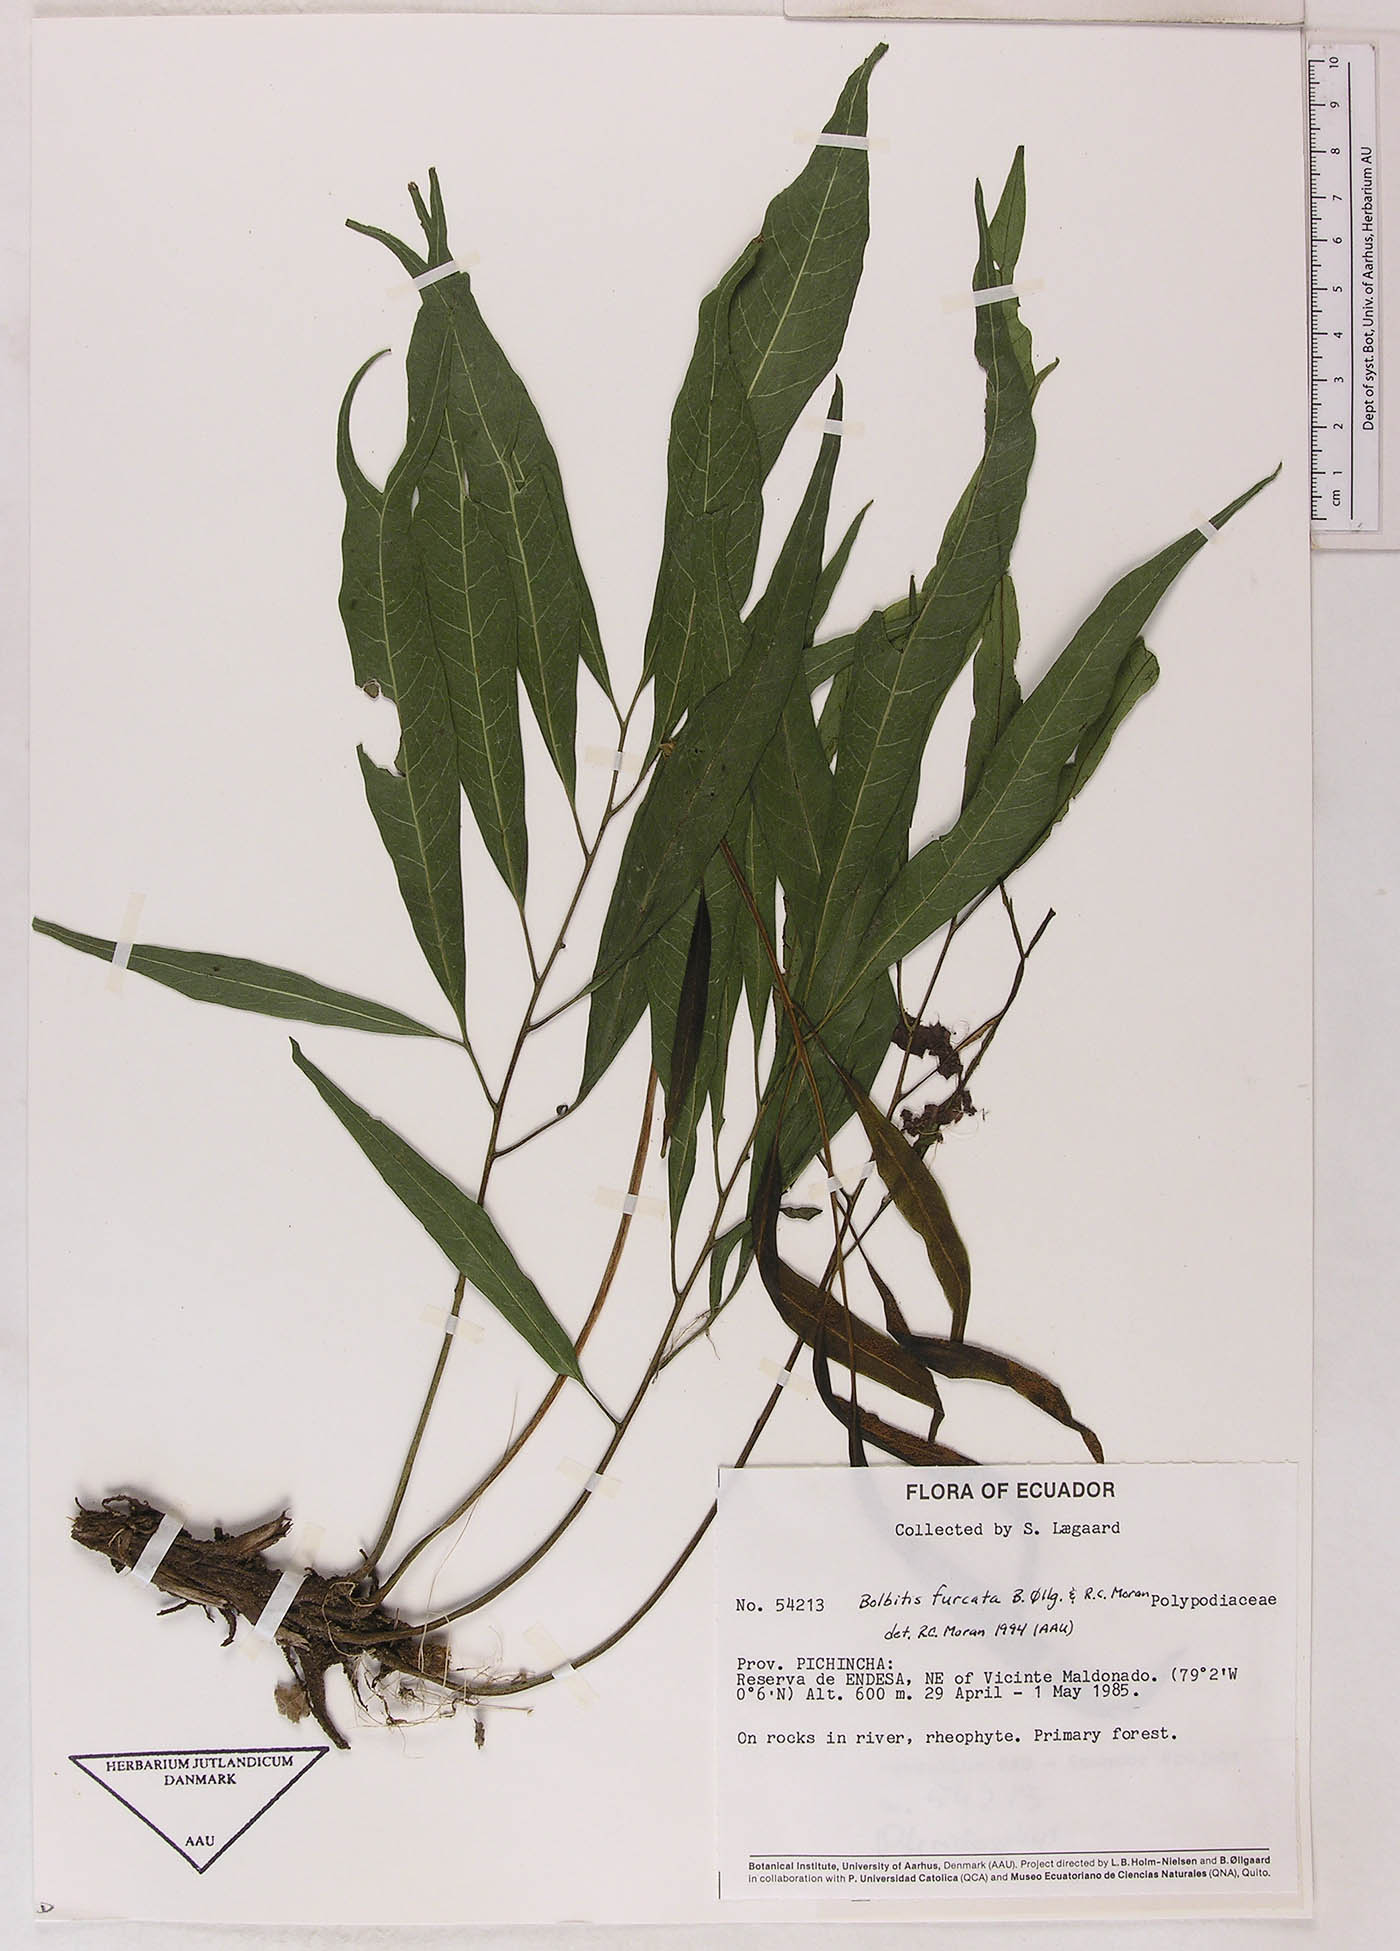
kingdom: Plantae
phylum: Tracheophyta
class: Polypodiopsida
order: Polypodiales
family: Polypodiaceae
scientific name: Polypodiaceae
